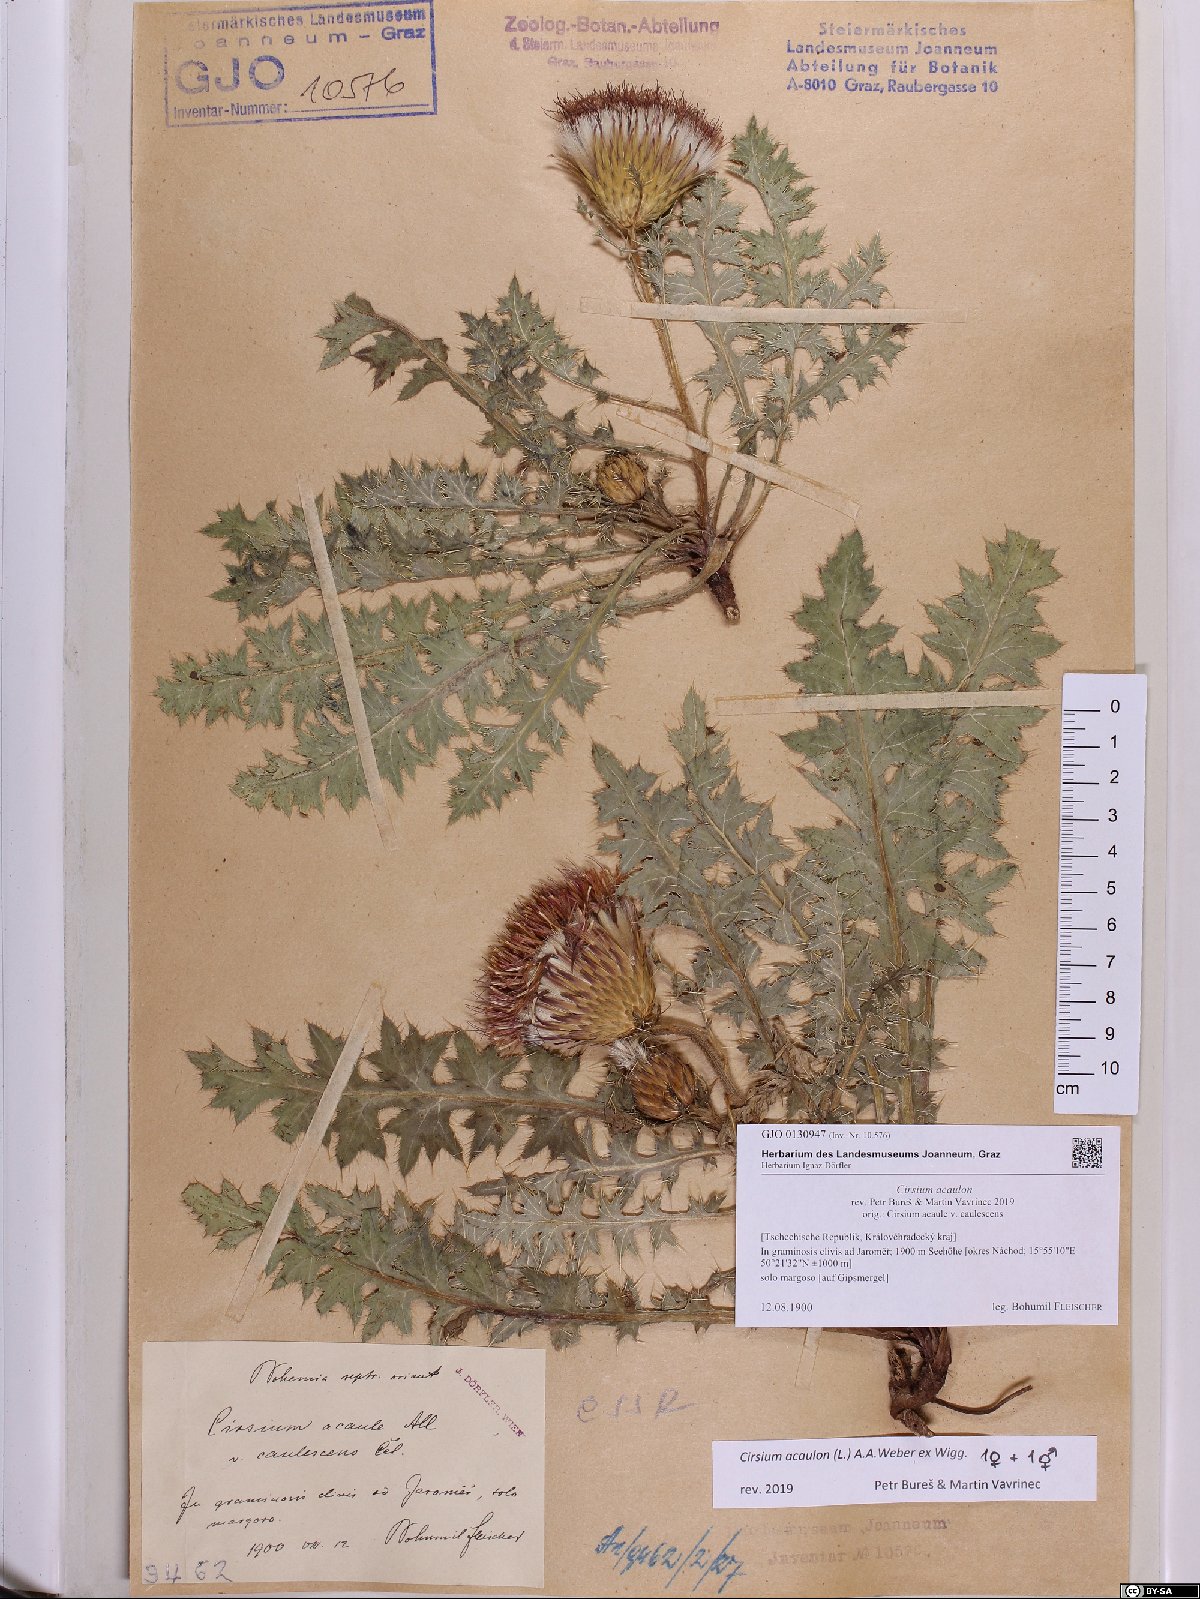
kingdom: Plantae
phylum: Tracheophyta
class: Magnoliopsida
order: Asterales
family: Asteraceae
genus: Cirsium
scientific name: Cirsium acaulon
